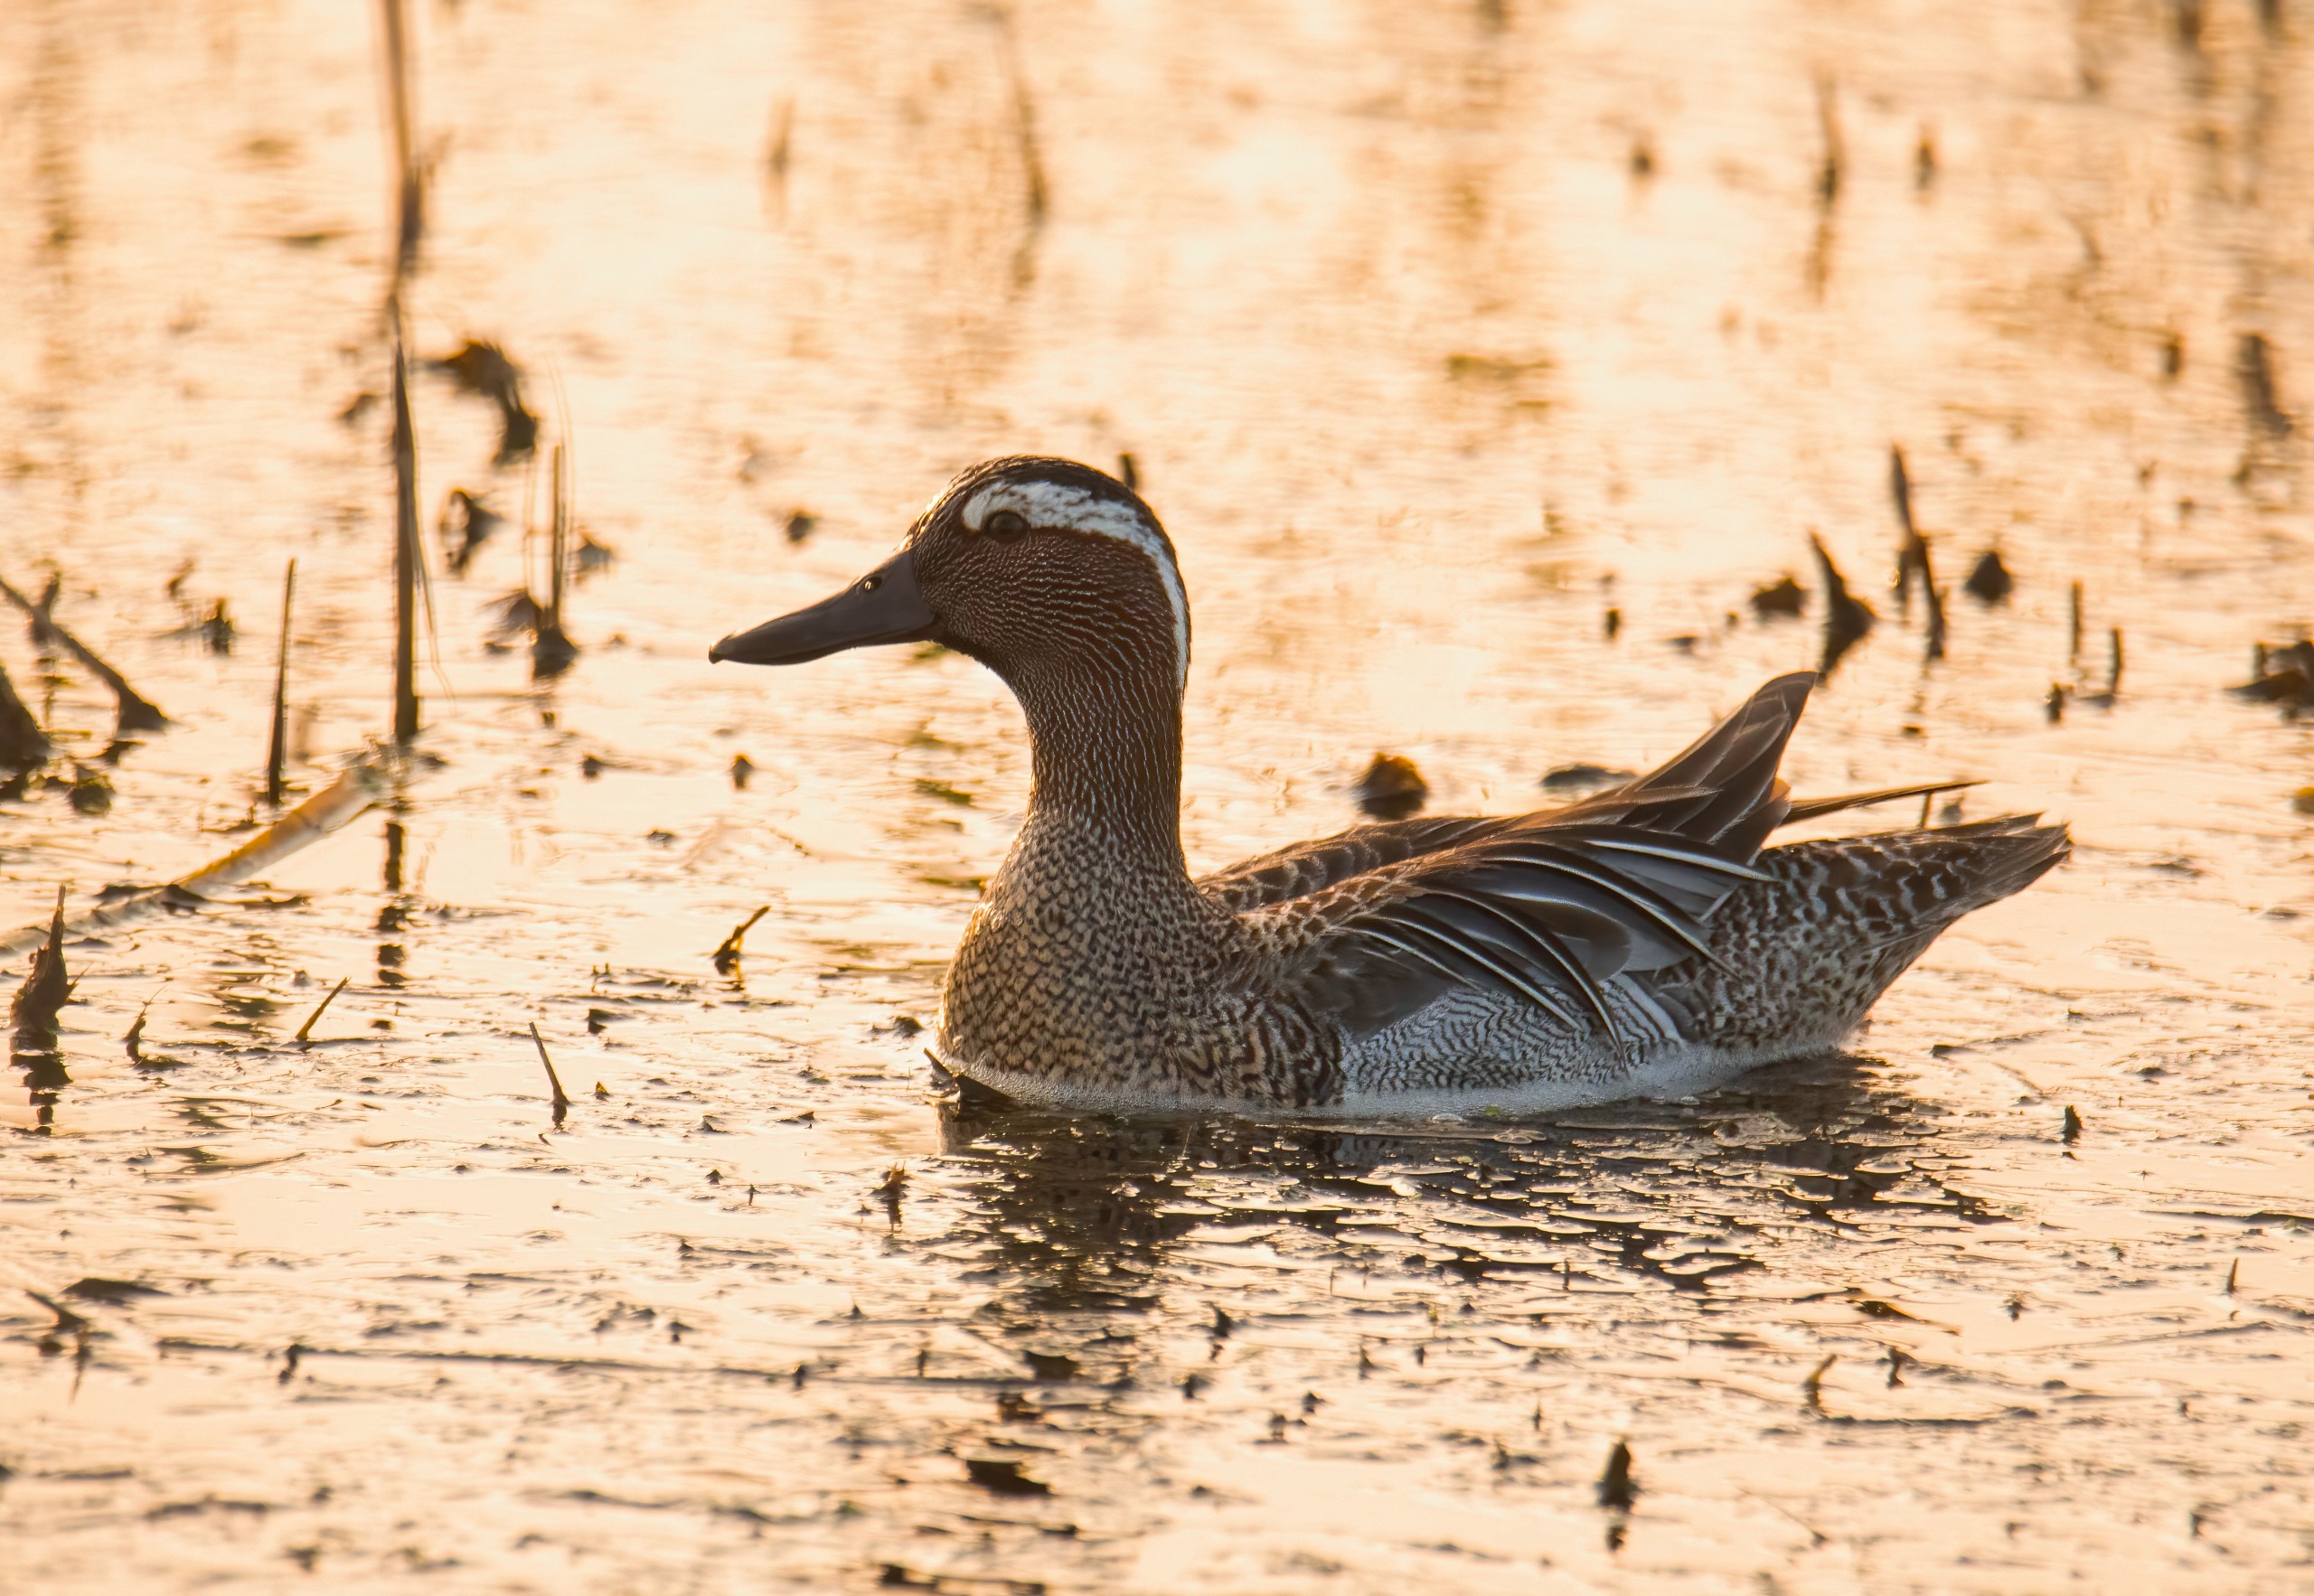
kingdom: Animalia
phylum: Chordata
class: Aves
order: Anseriformes
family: Anatidae
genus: Spatula
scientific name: Spatula querquedula
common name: Atlingand
